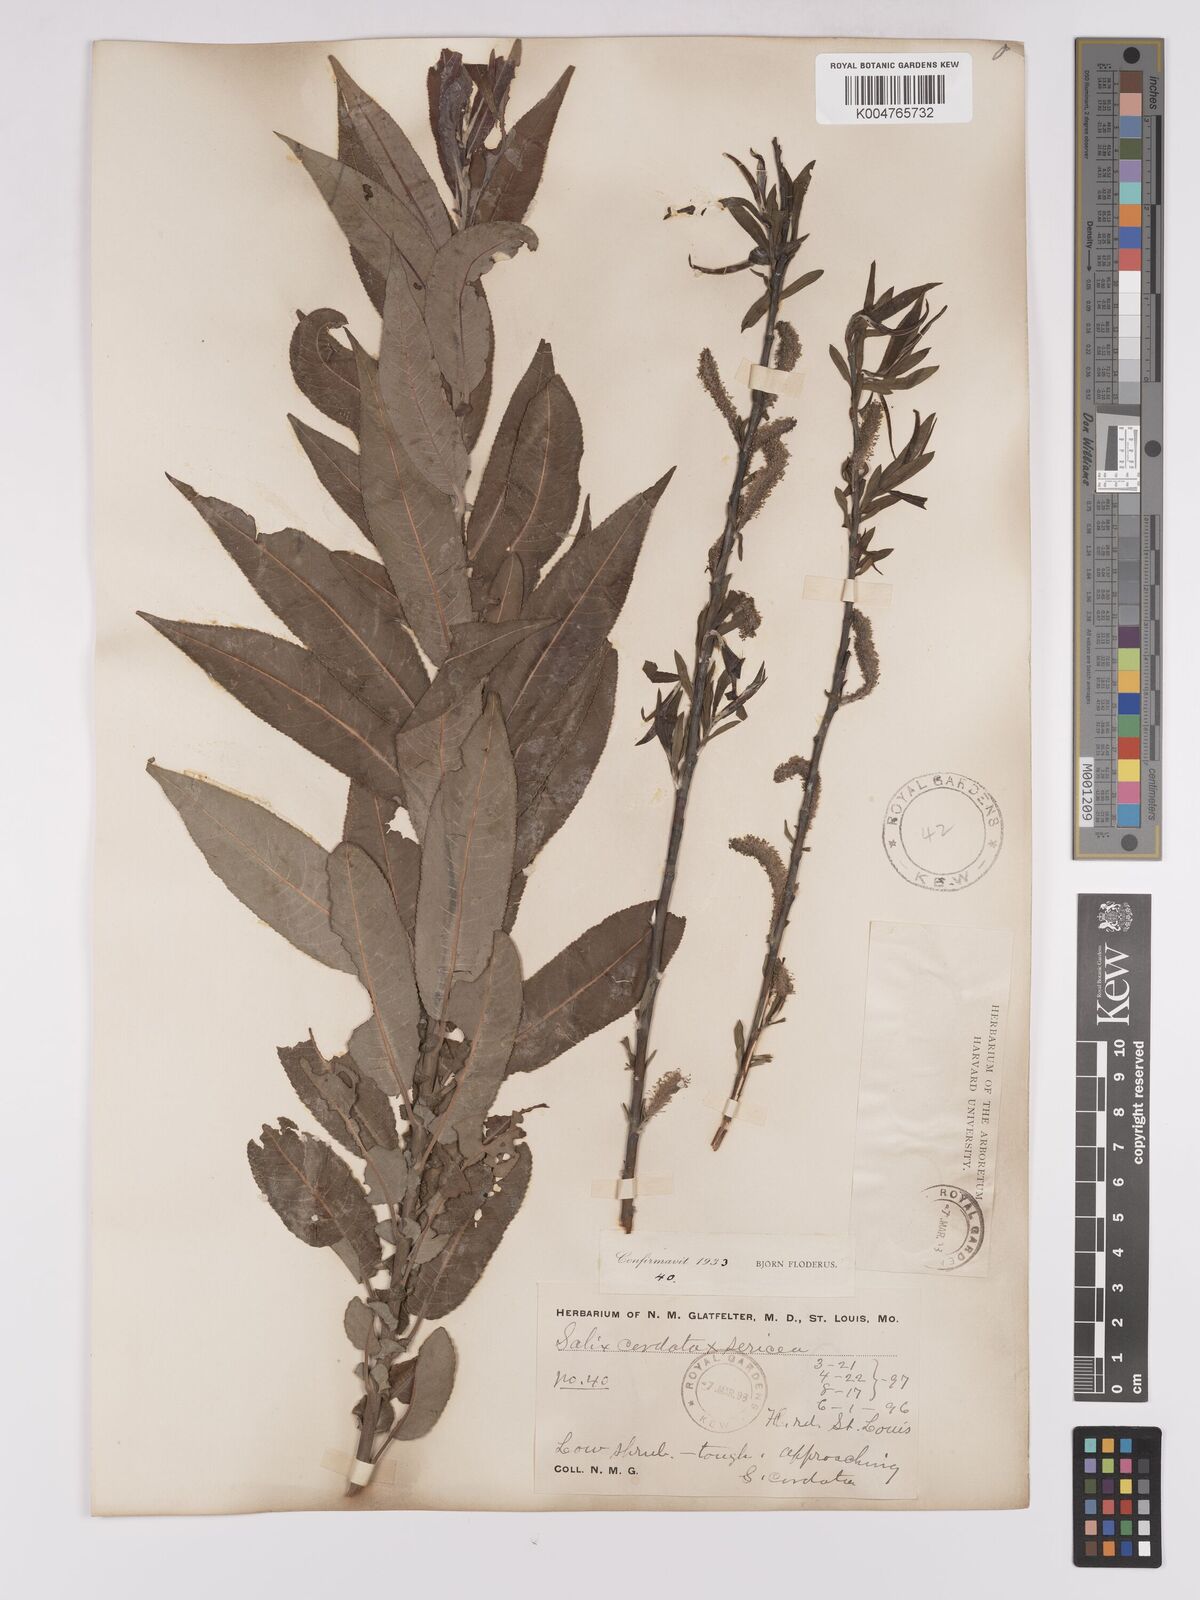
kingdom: Plantae
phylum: Tracheophyta
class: Magnoliopsida
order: Malpighiales
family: Salicaceae
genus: Salix
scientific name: Salix
